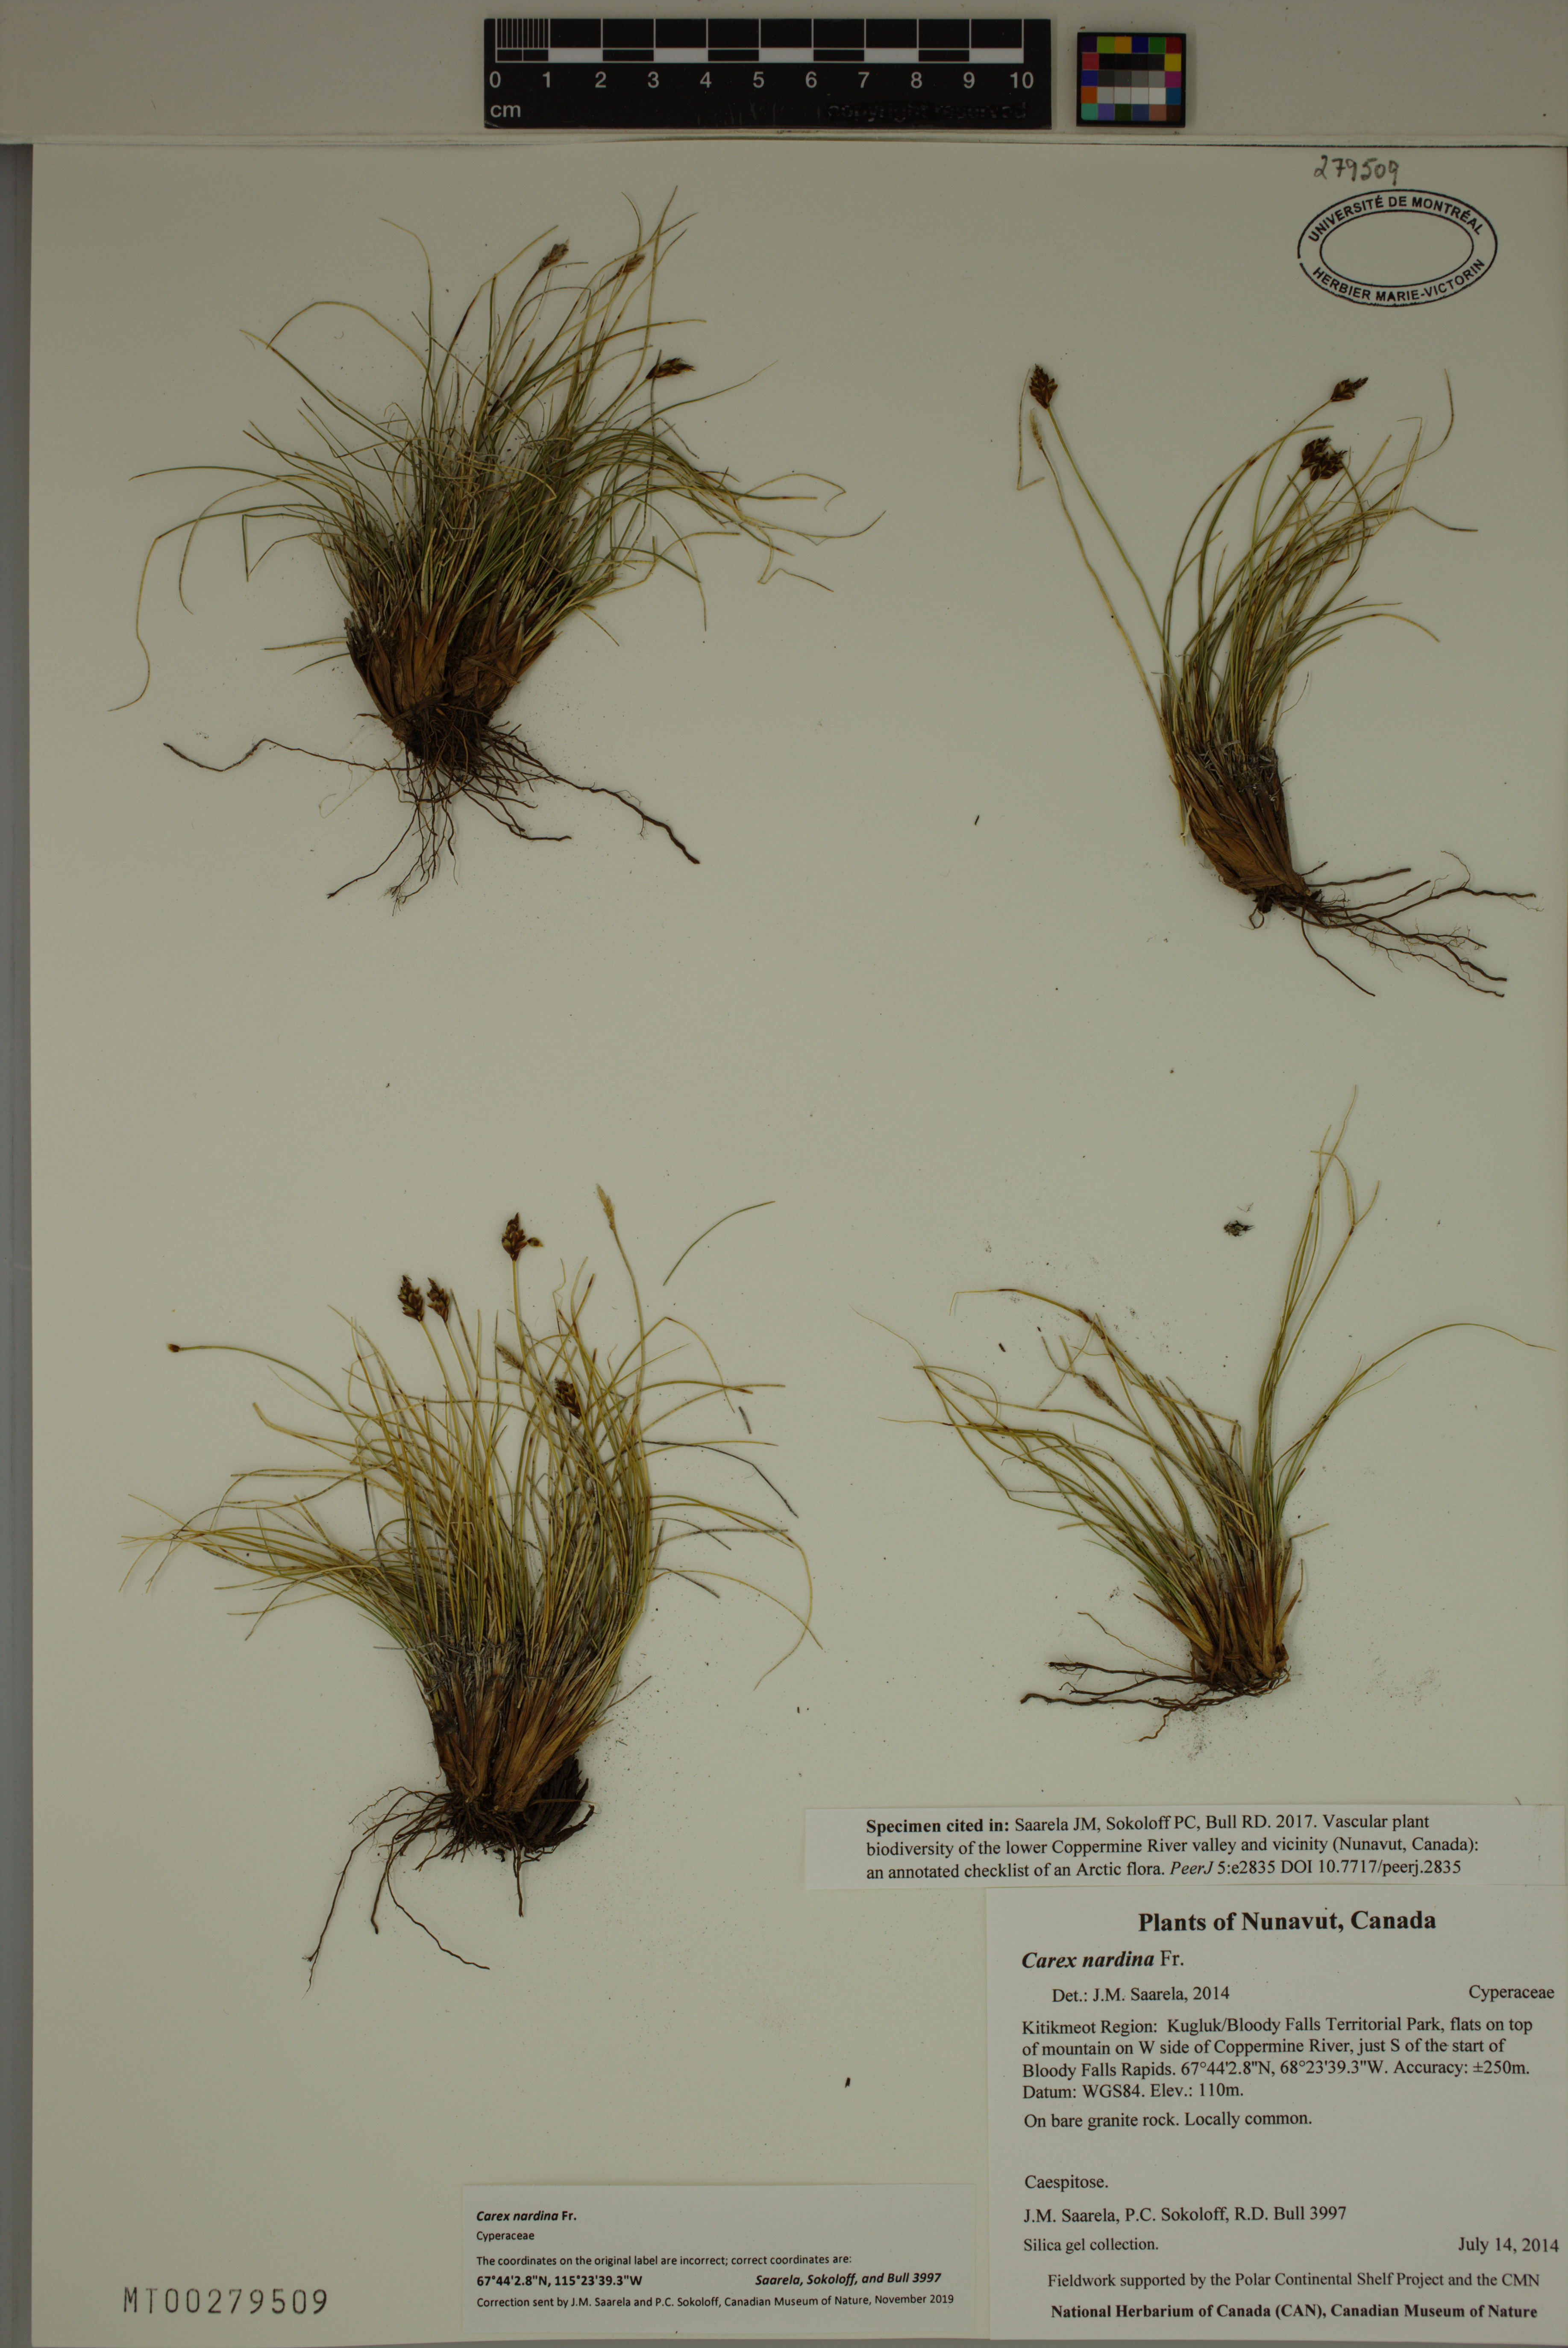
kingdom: Plantae
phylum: Tracheophyta
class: Liliopsida
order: Poales
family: Cyperaceae
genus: Carex
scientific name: Carex nardina
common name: Nard sedge
